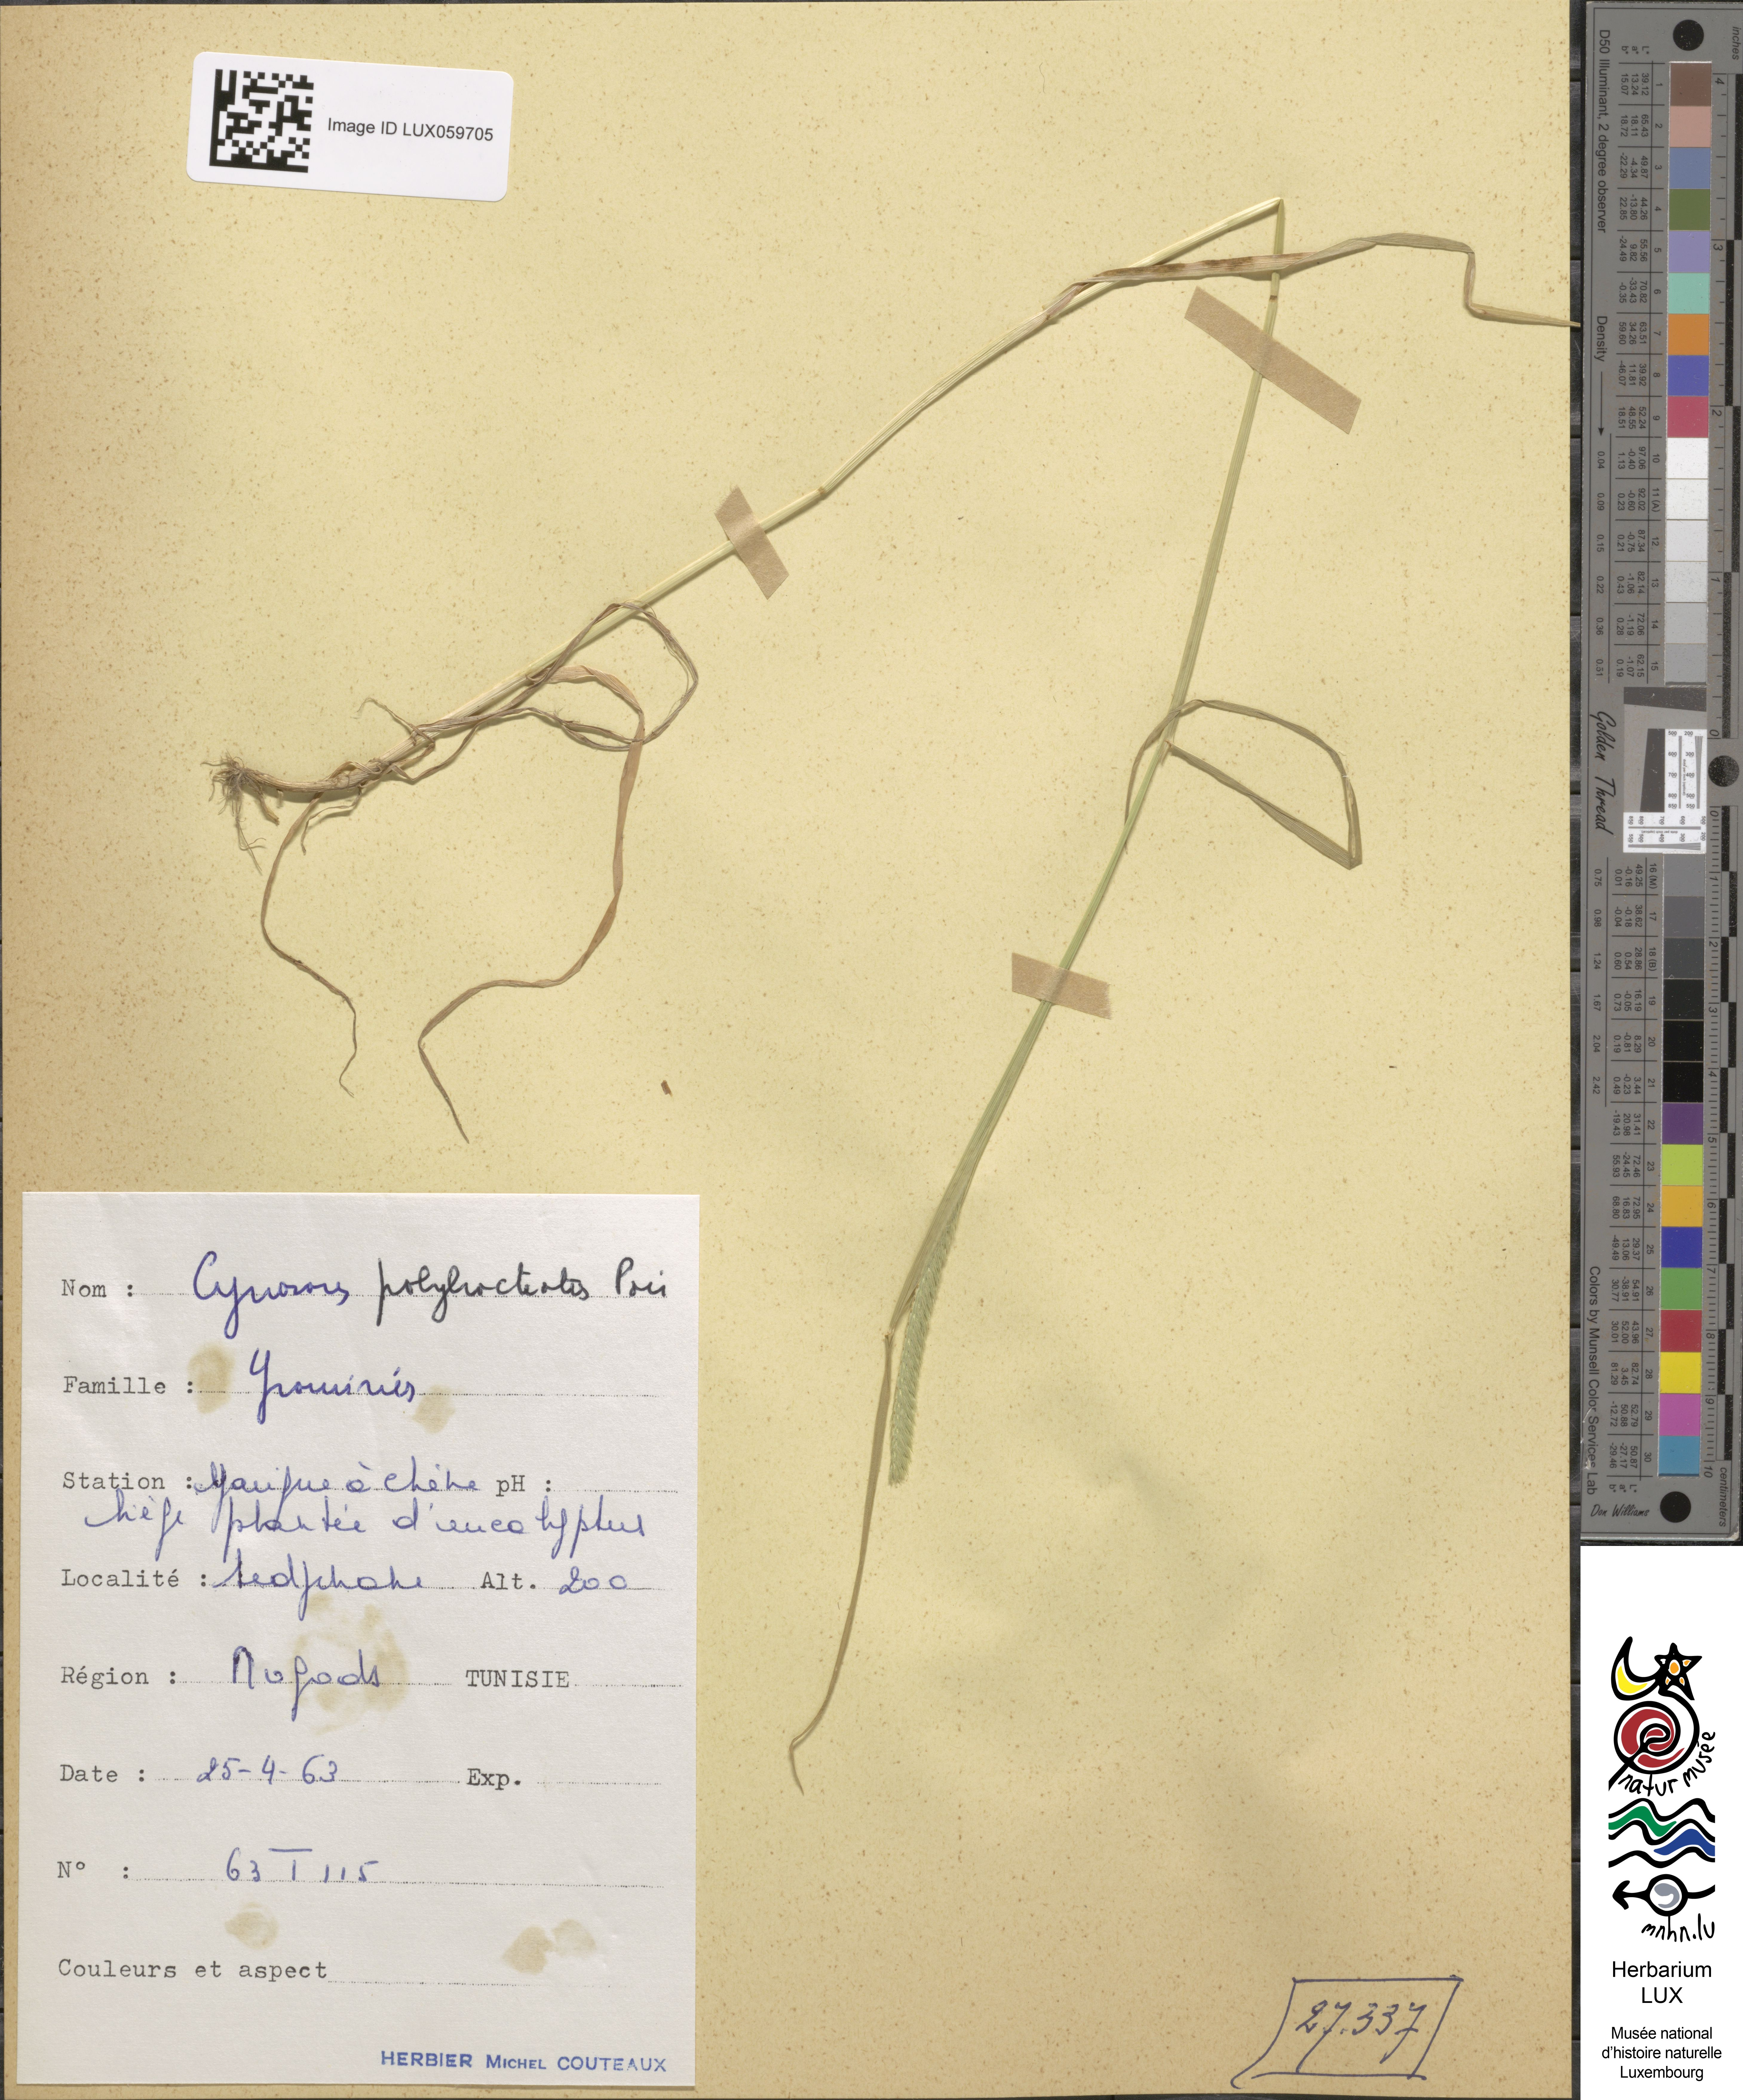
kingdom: Plantae
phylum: Tracheophyta
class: Liliopsida
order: Poales
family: Poaceae
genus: Cynosurus
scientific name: Cynosurus polybracteatus
